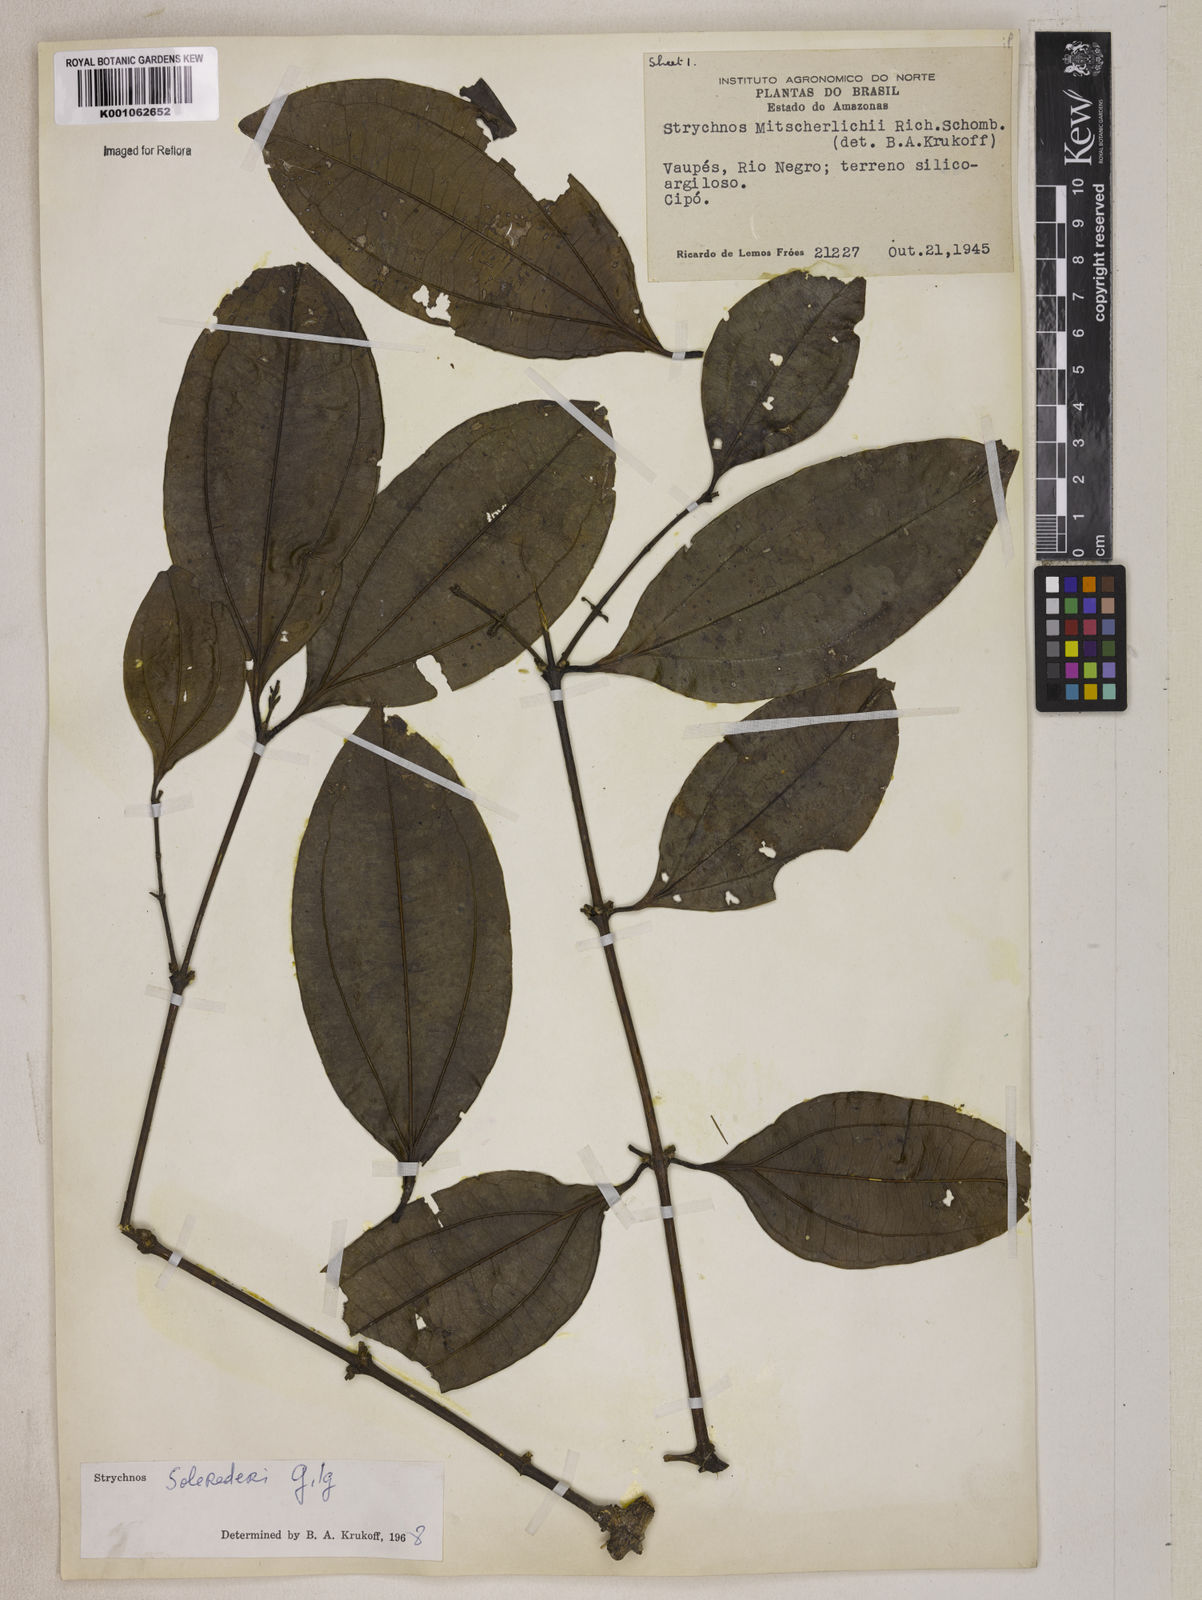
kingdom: Plantae
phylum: Tracheophyta
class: Magnoliopsida
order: Gentianales
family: Loganiaceae
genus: Strychnos
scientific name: Strychnos solerederi
